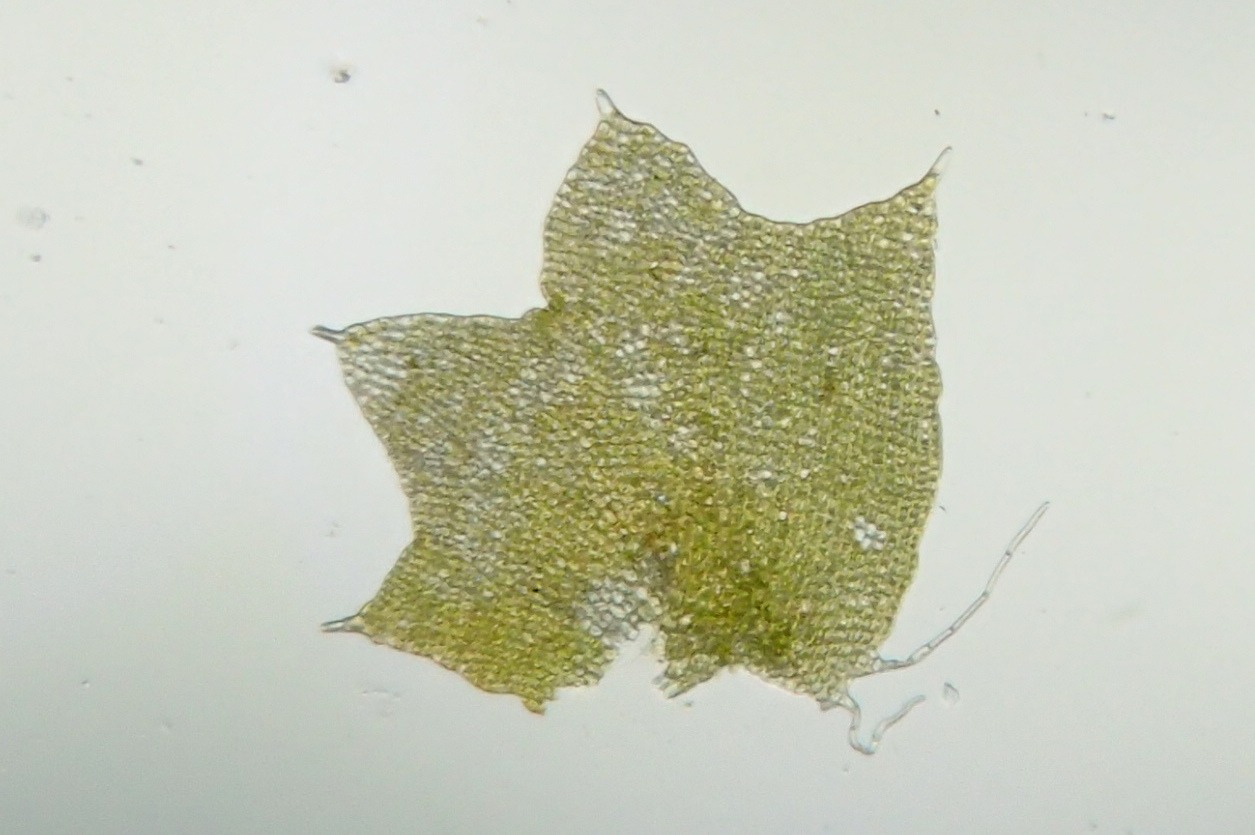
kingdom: Plantae
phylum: Marchantiophyta
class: Jungermanniopsida
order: Jungermanniales
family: Anastrophyllaceae
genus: Barbilophozia
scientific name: Barbilophozia hatcheri
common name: Spidsfliget flerfligmos
